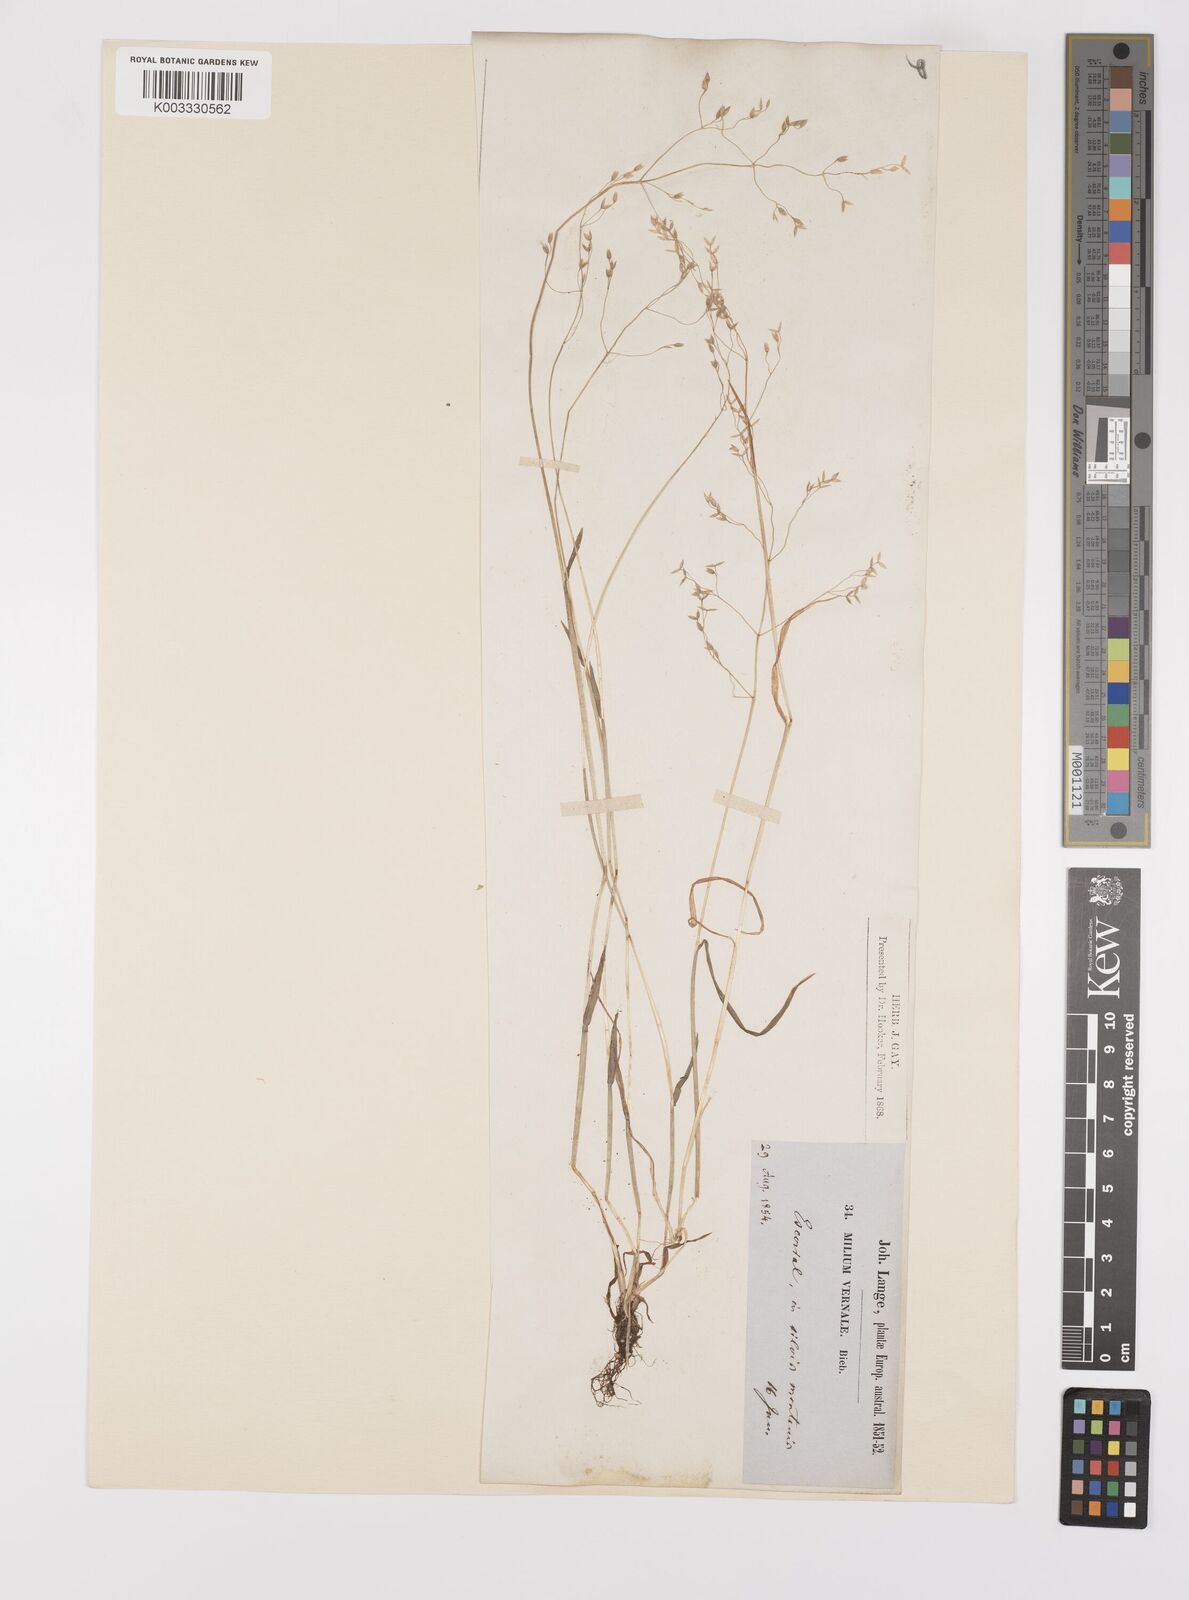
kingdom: Plantae
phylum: Tracheophyta
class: Liliopsida
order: Poales
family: Poaceae
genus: Milium
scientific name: Milium vernale
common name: Early millet
